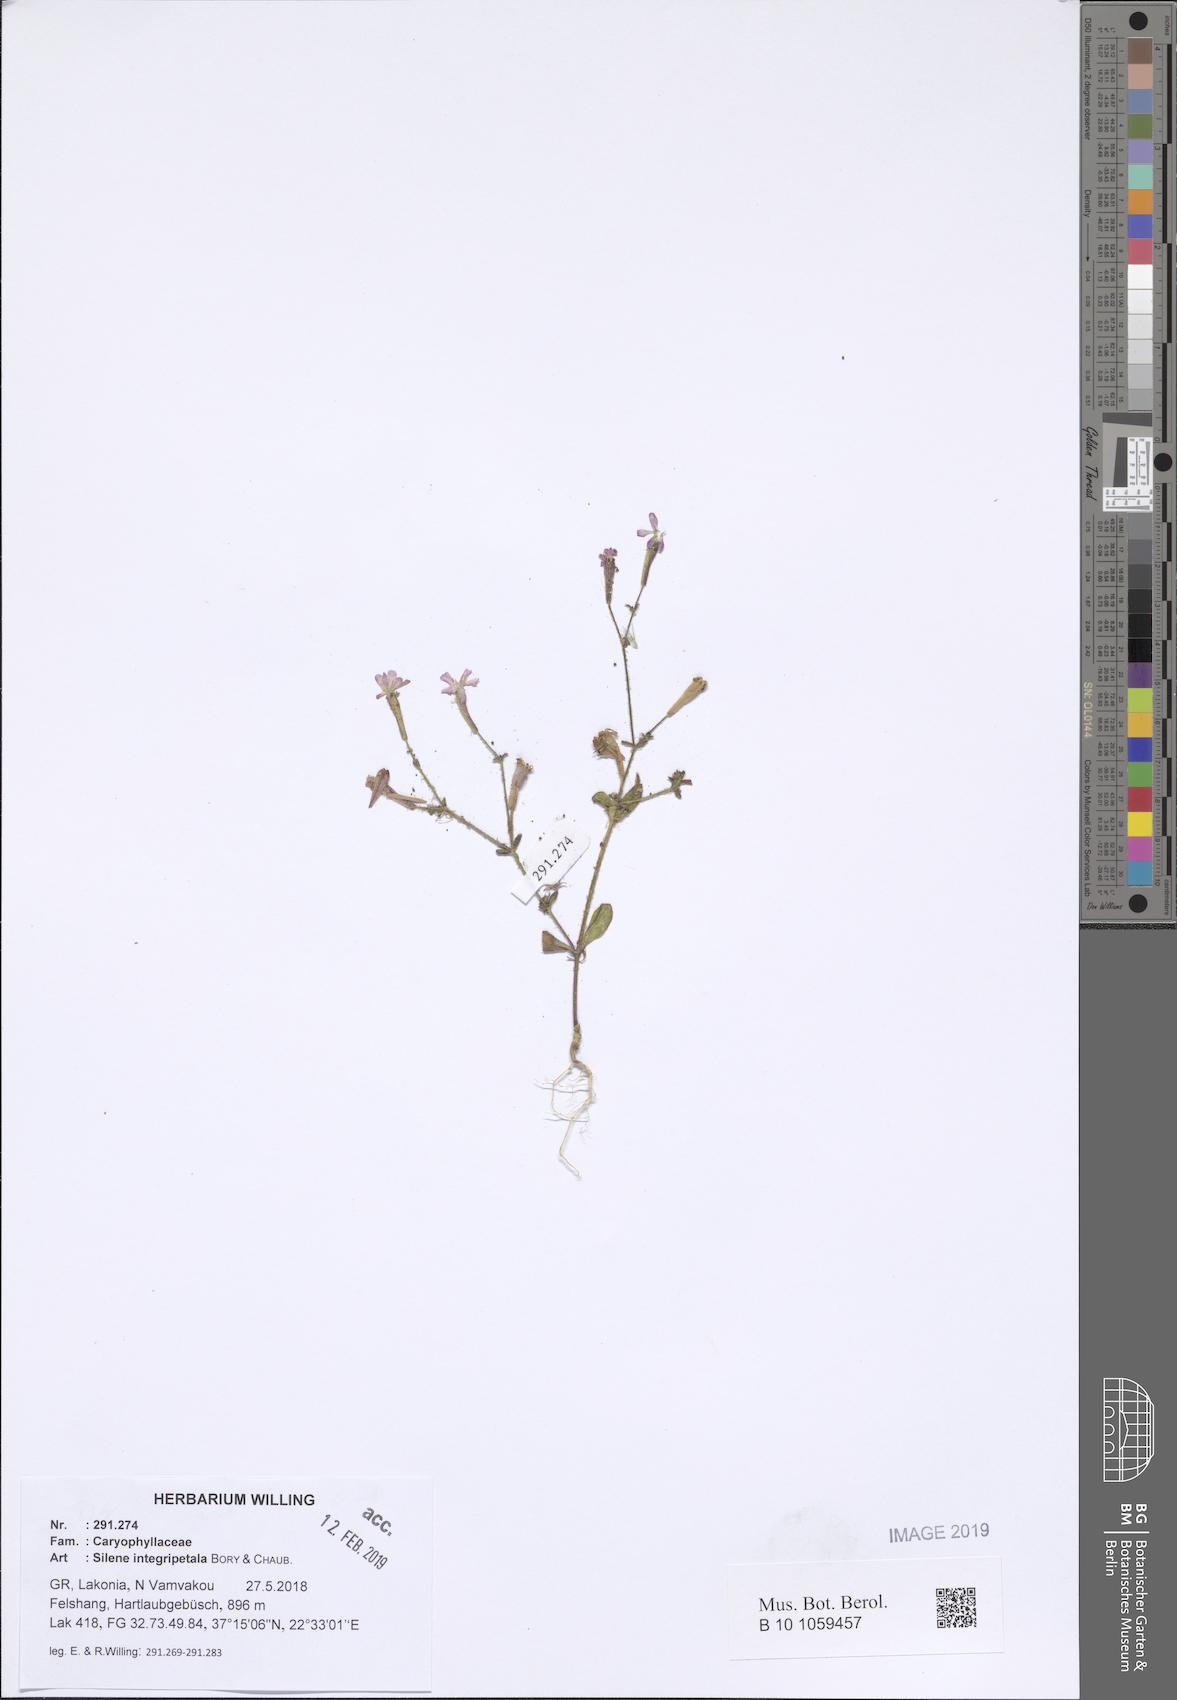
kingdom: Plantae
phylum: Tracheophyta
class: Magnoliopsida
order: Caryophyllales
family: Caryophyllaceae
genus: Silene
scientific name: Silene integripetala
